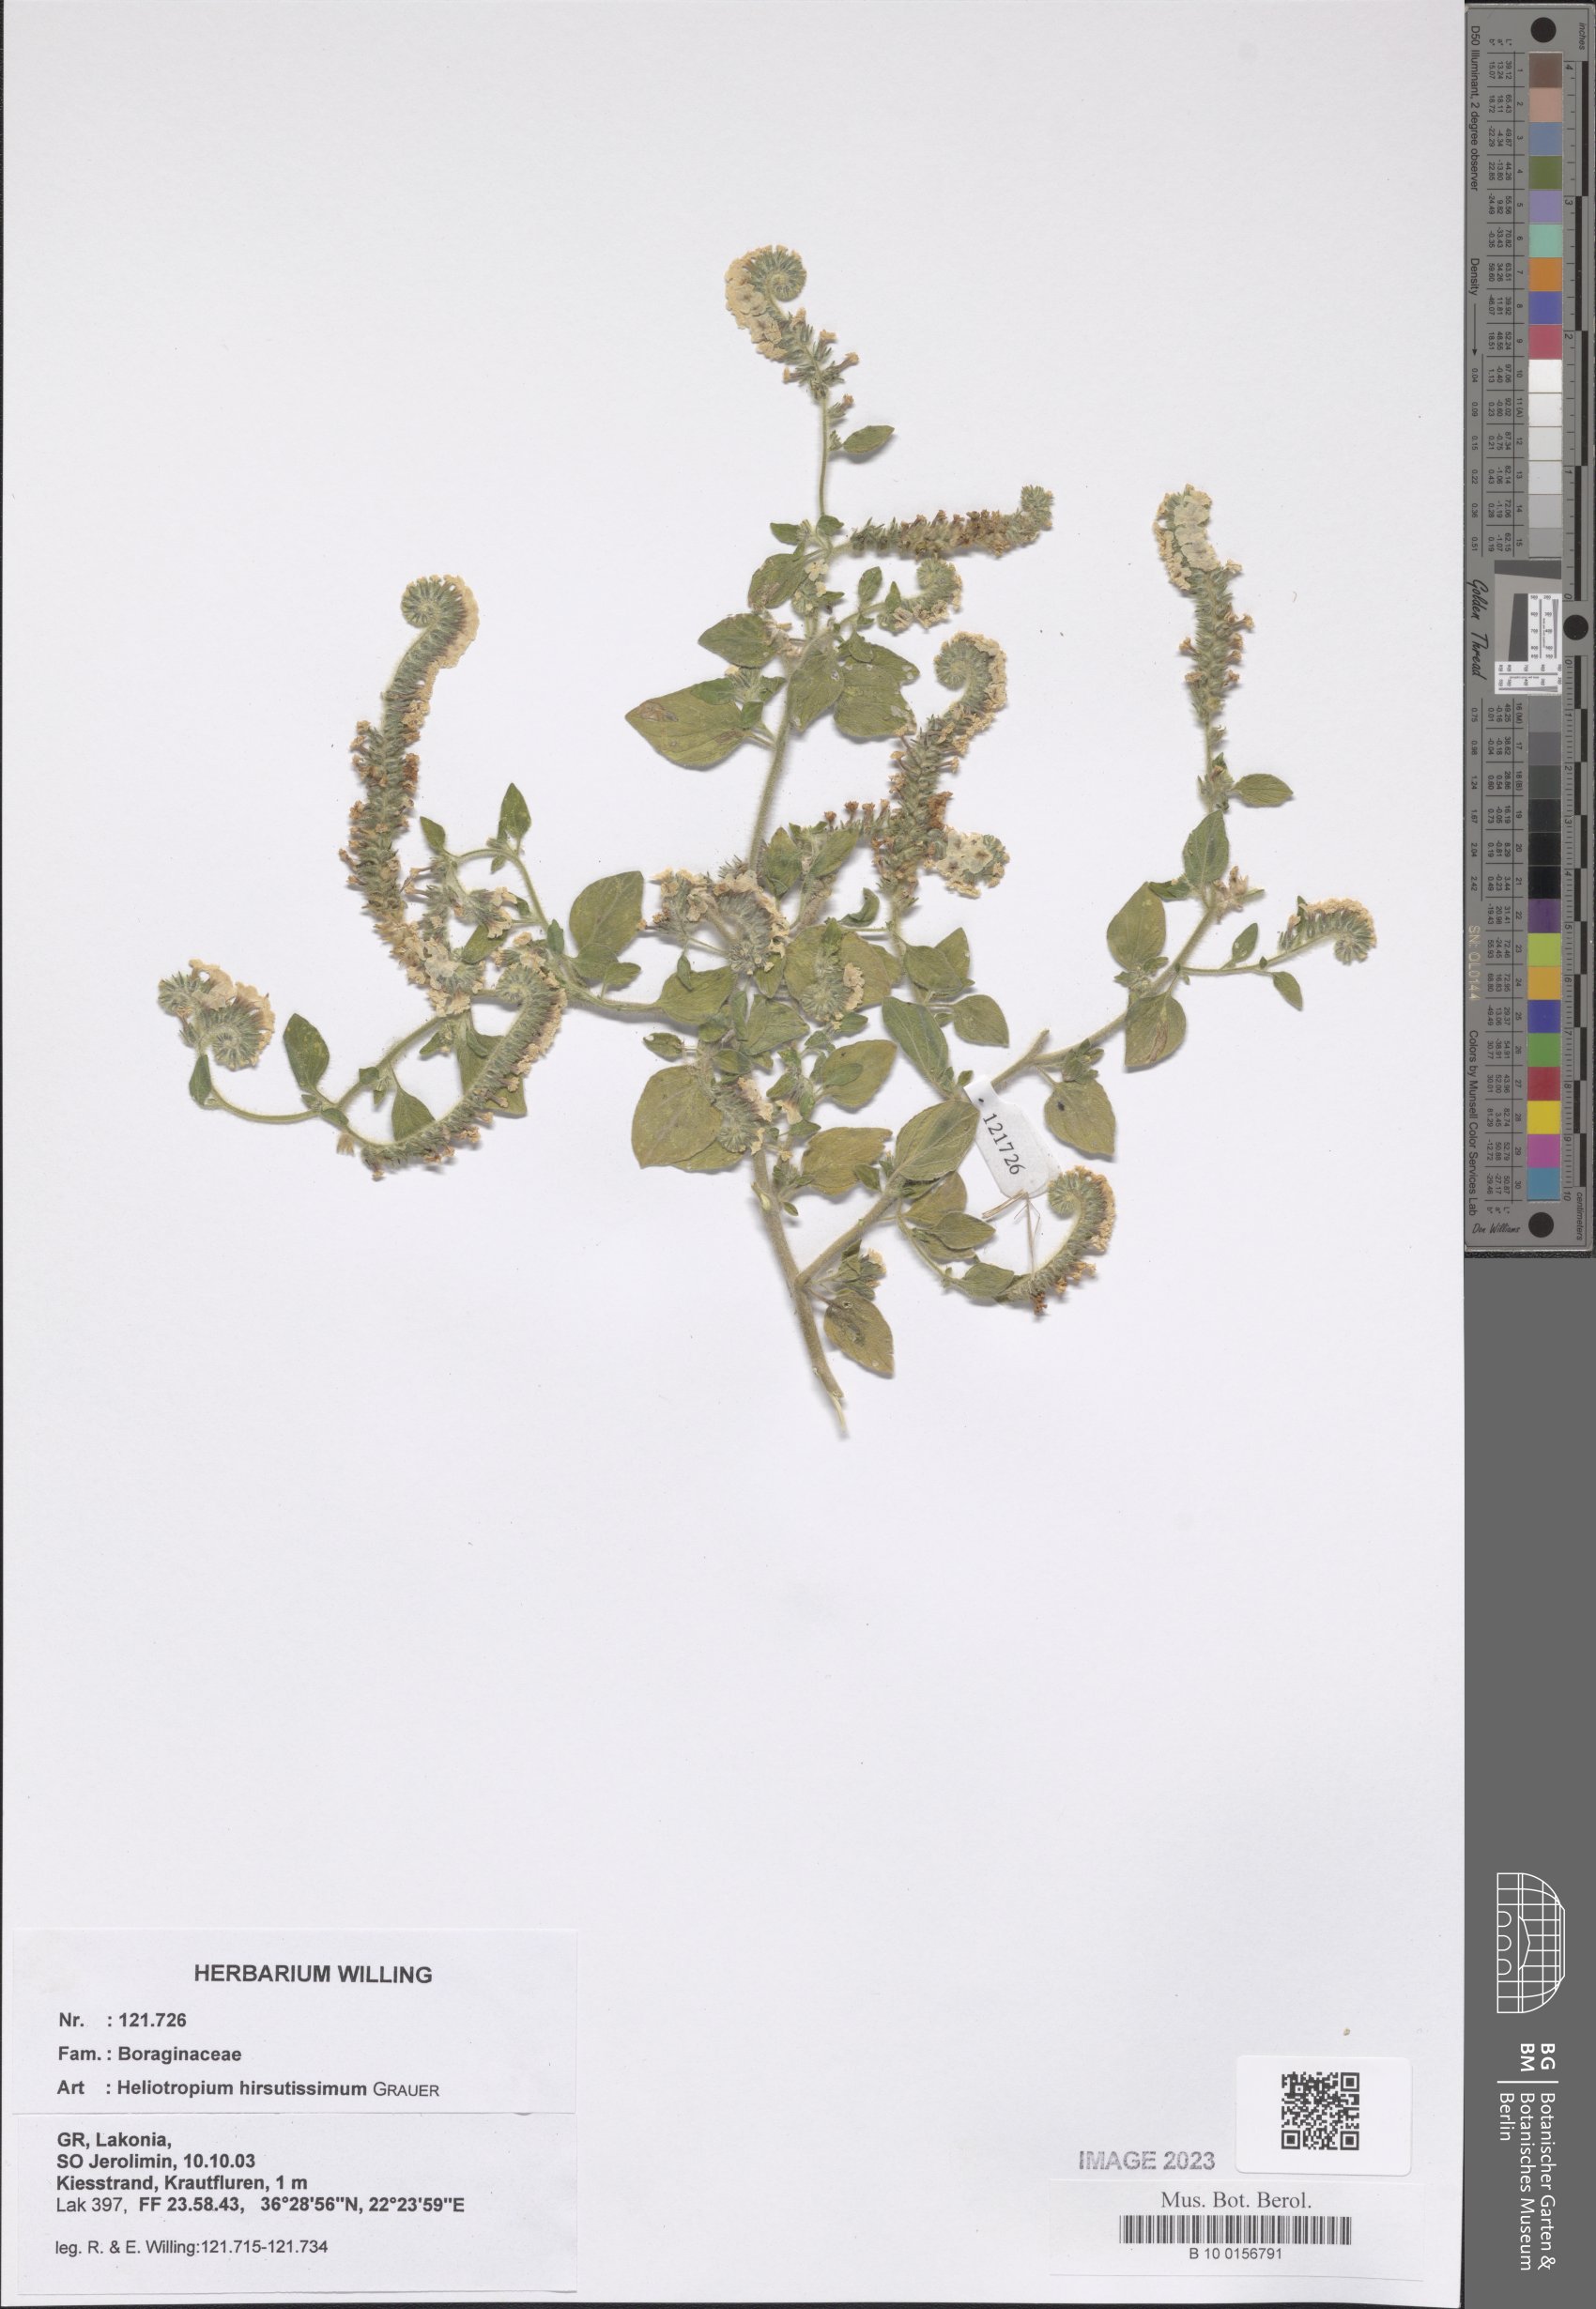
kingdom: Plantae
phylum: Tracheophyta
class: Magnoliopsida
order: Boraginales
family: Heliotropiaceae
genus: Heliotropium
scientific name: Heliotropium hirsutissimum
